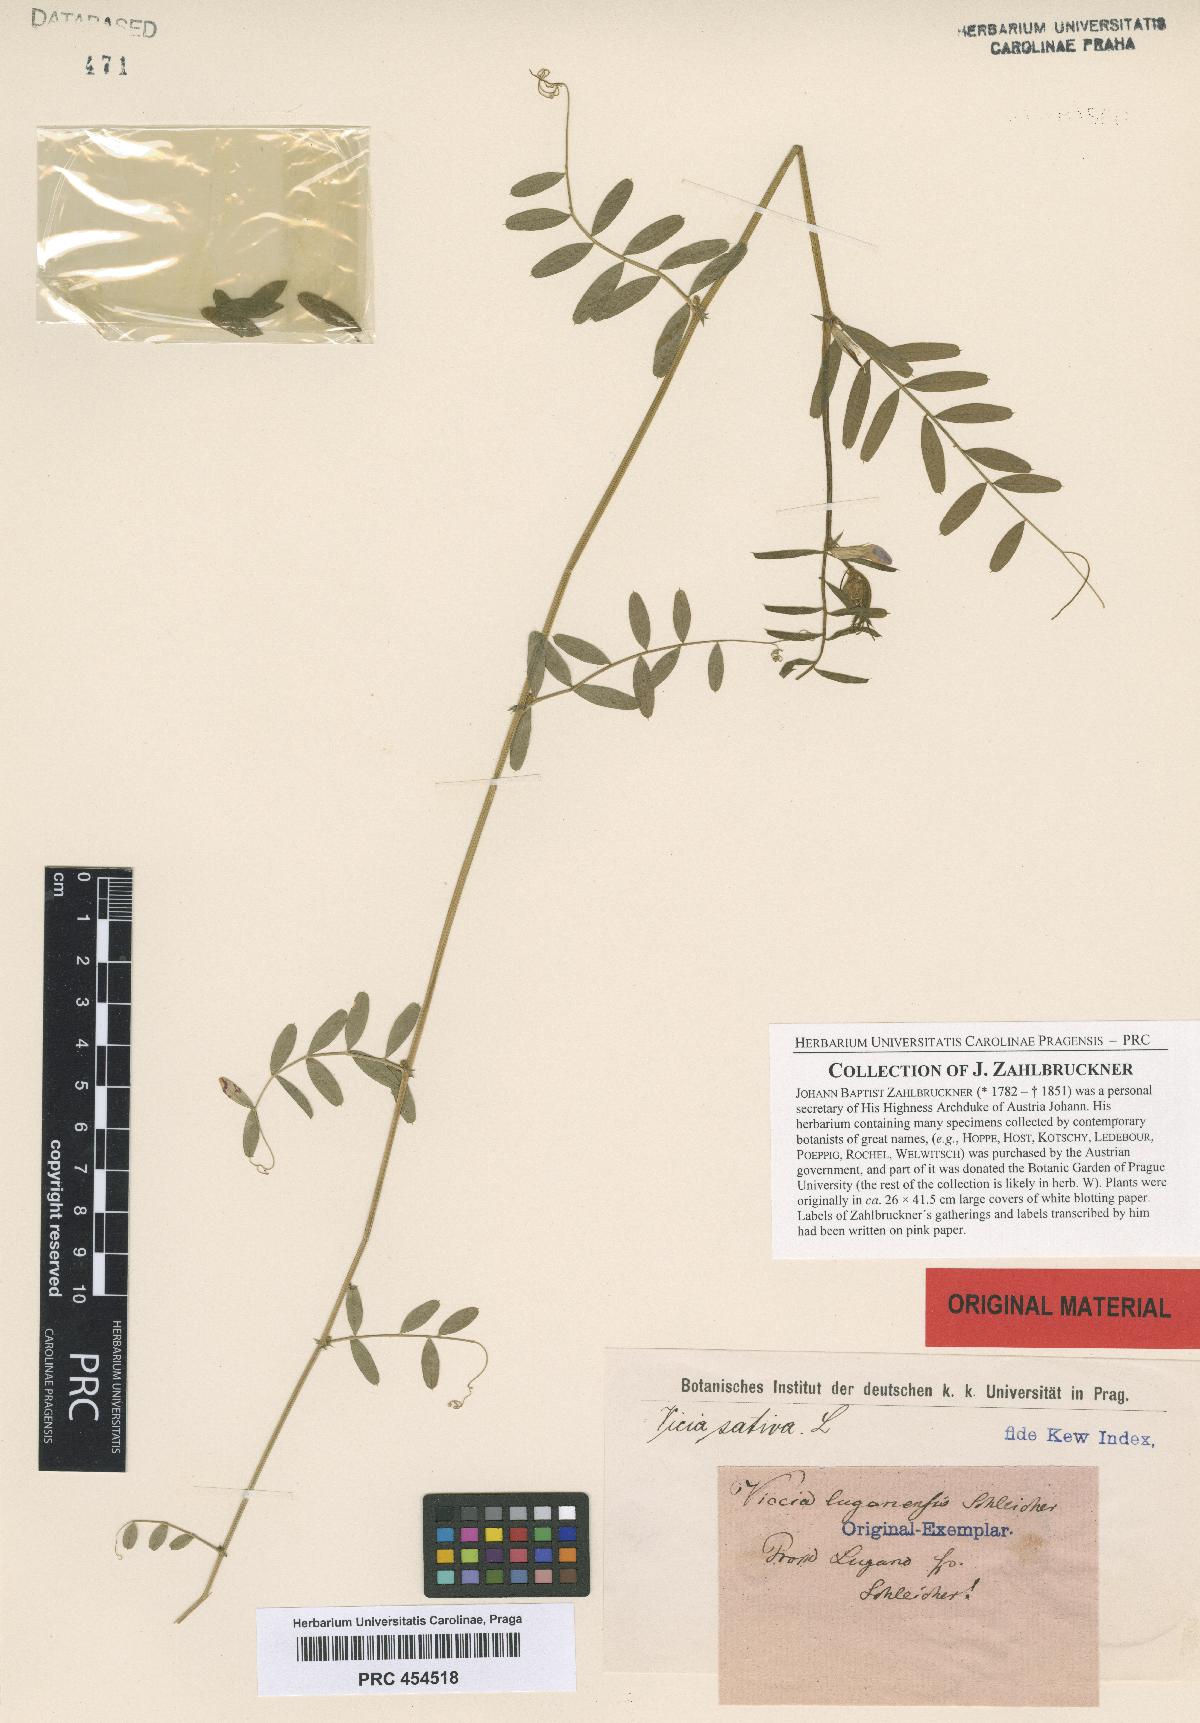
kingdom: Plantae
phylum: Tracheophyta
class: Magnoliopsida
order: Fabales
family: Fabaceae
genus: Vicia
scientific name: Vicia sativa
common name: Garden vetch
